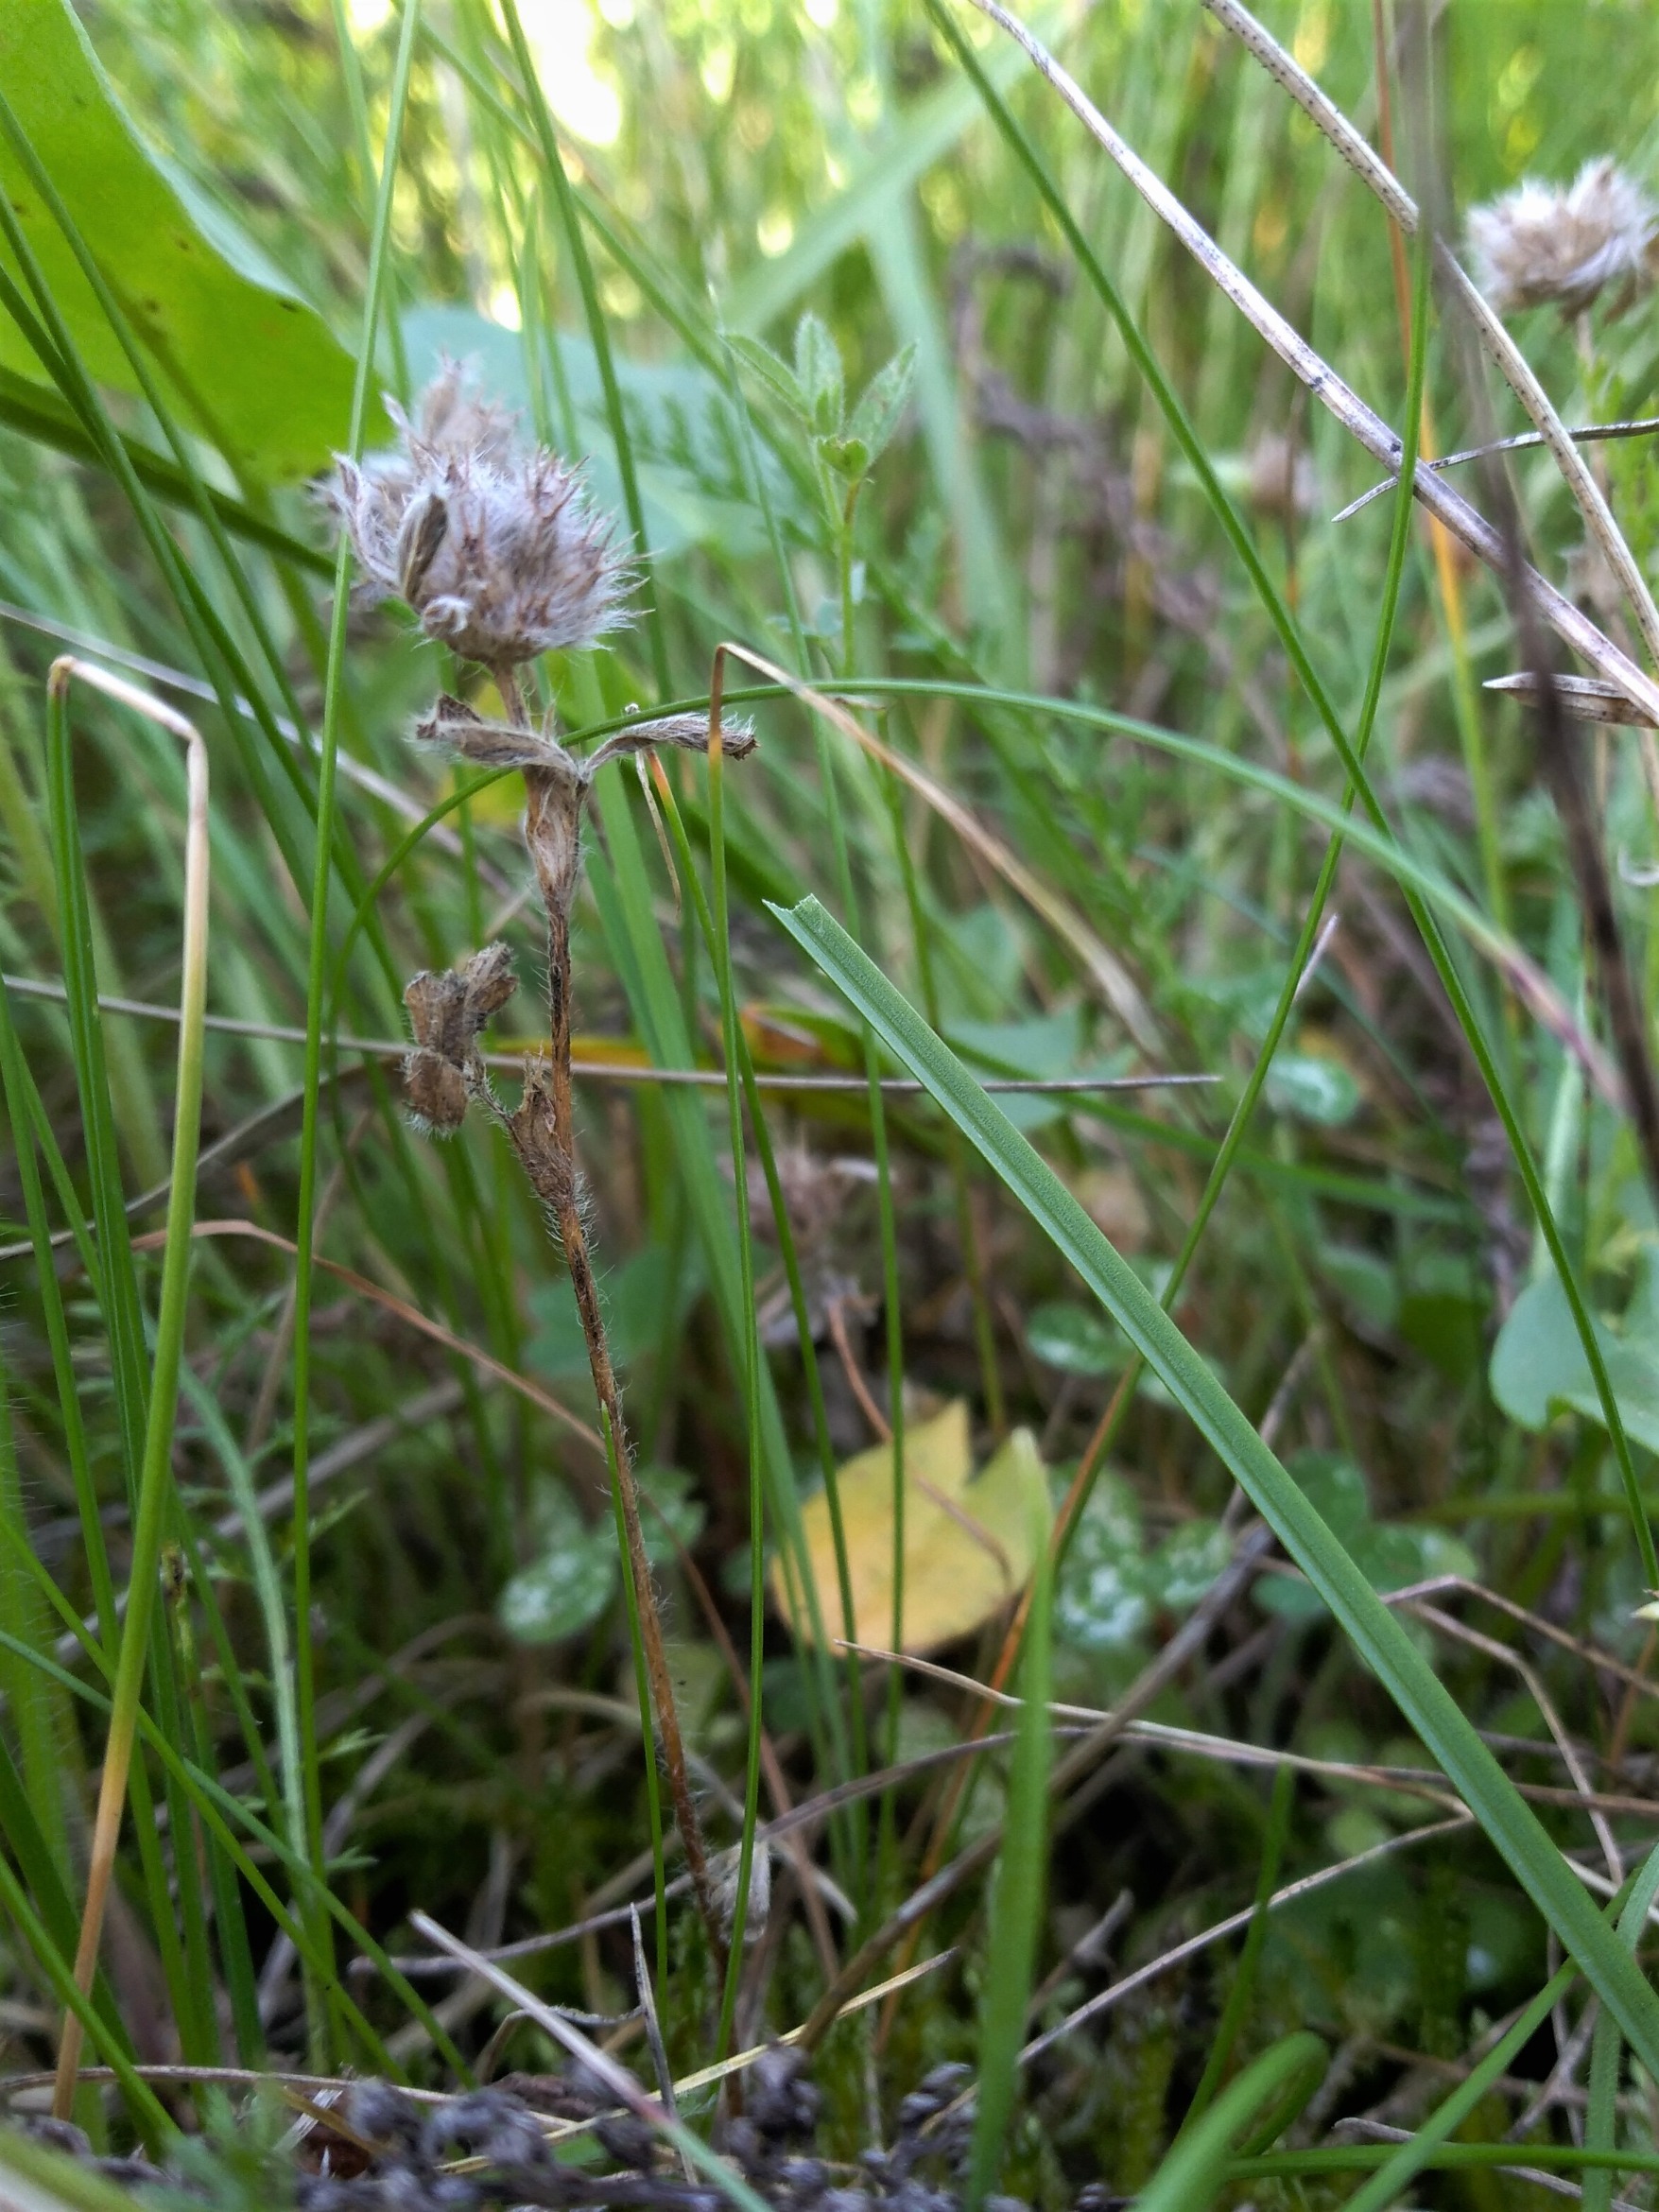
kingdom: Plantae
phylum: Tracheophyta
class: Magnoliopsida
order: Fabales
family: Fabaceae
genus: Trifolium
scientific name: Trifolium striatum
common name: Stribet kløver
